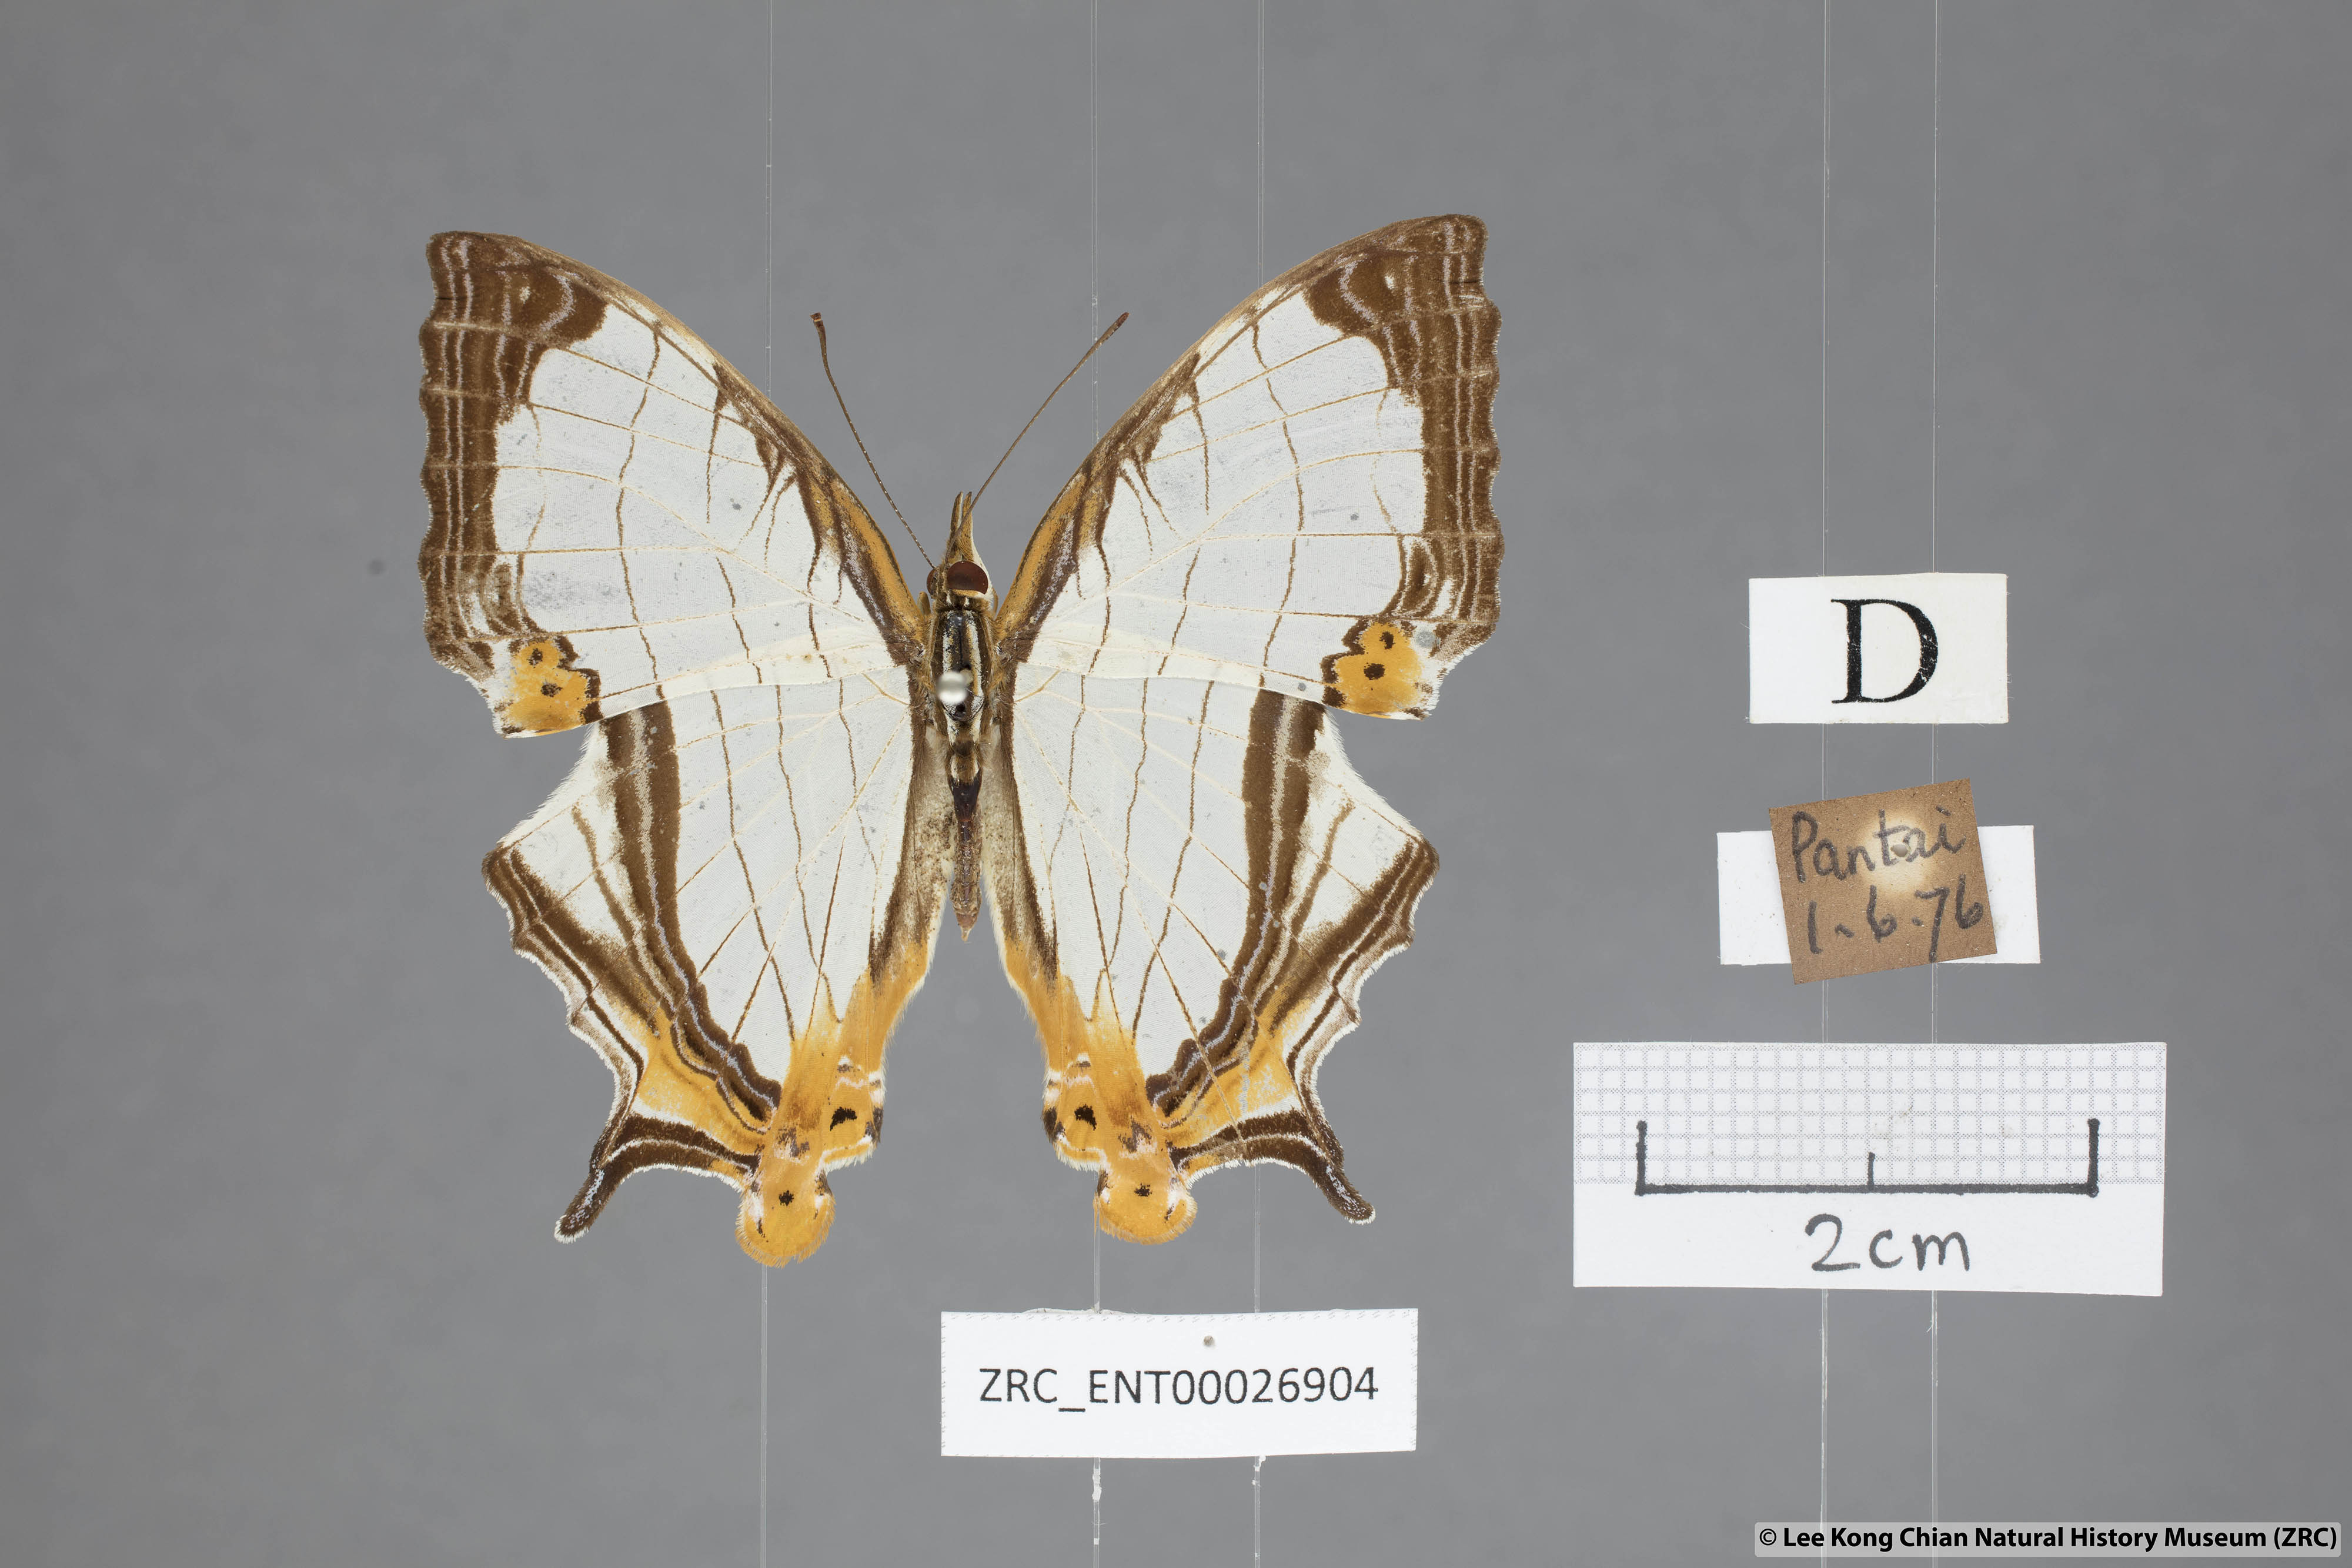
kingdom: Animalia
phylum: Arthropoda
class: Insecta
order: Lepidoptera
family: Nymphalidae
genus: Cyrestis
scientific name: Cyrestis nivea
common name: Straight line mapwing
